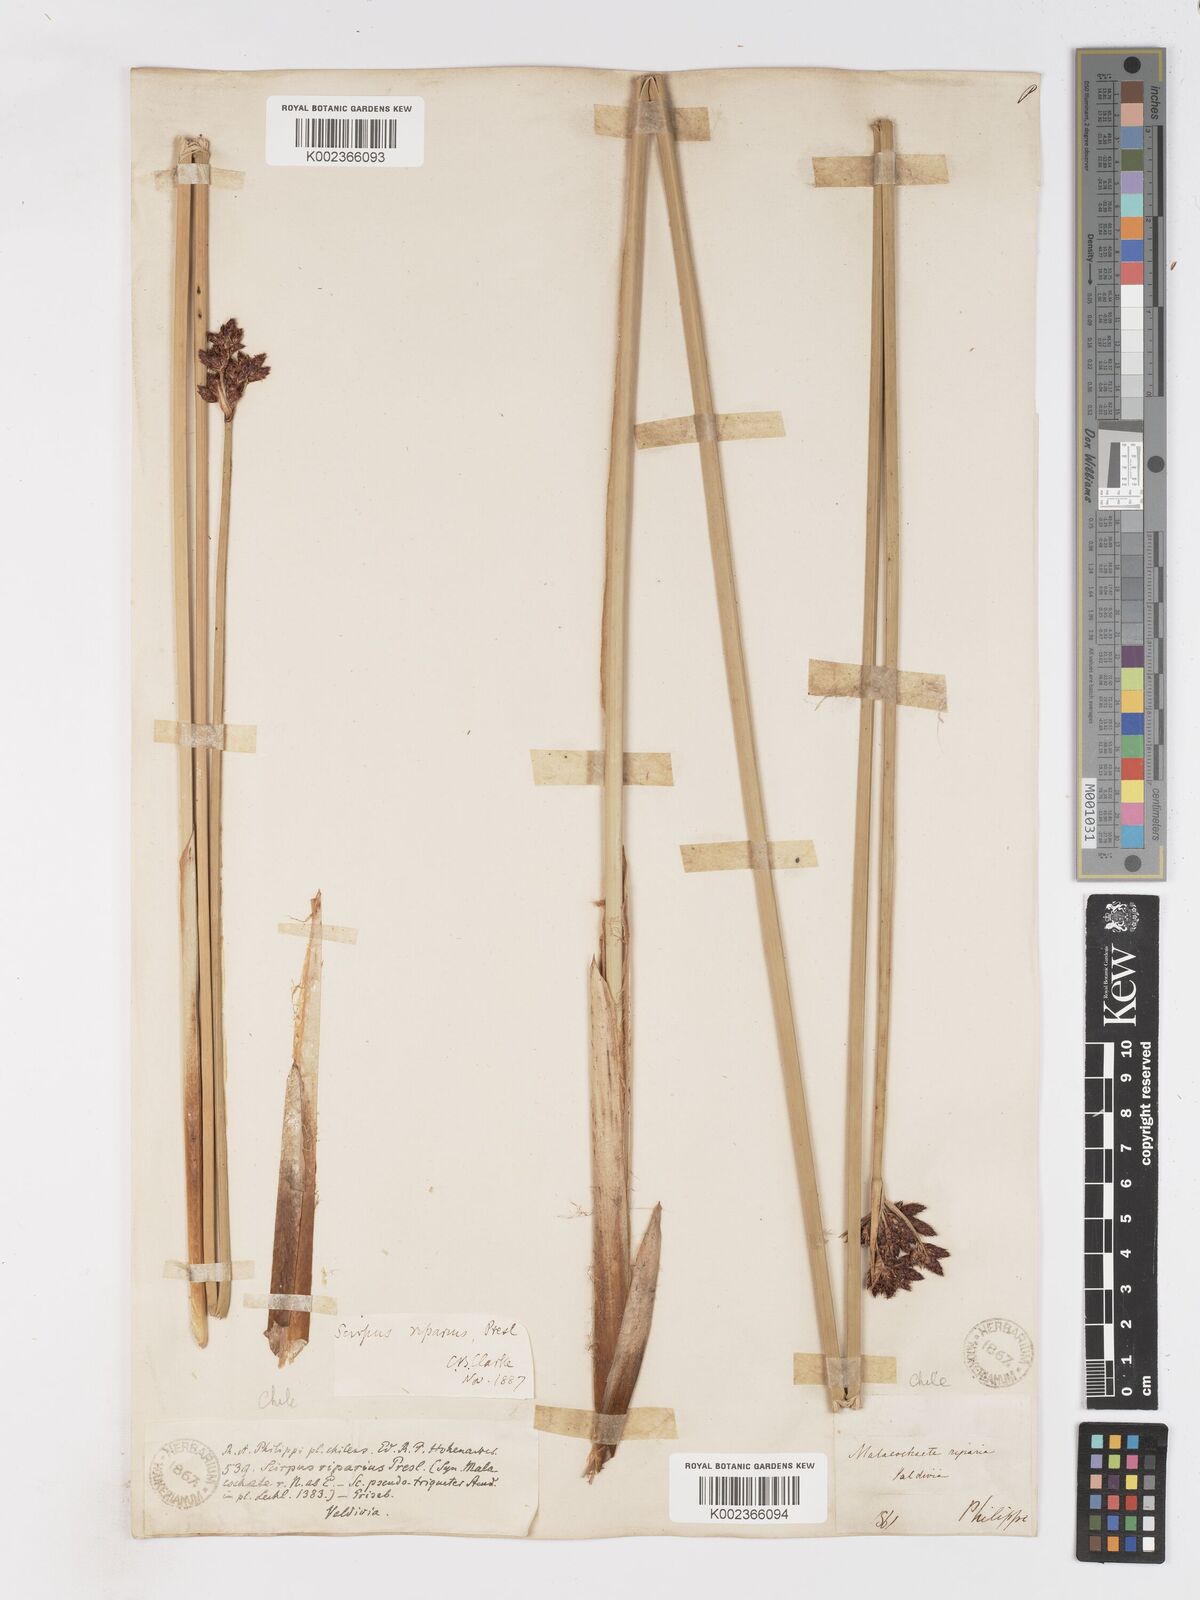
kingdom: Plantae
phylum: Tracheophyta
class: Liliopsida
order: Poales
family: Cyperaceae
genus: Schoenoplectus
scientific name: Schoenoplectus californicus
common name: California bulrush
